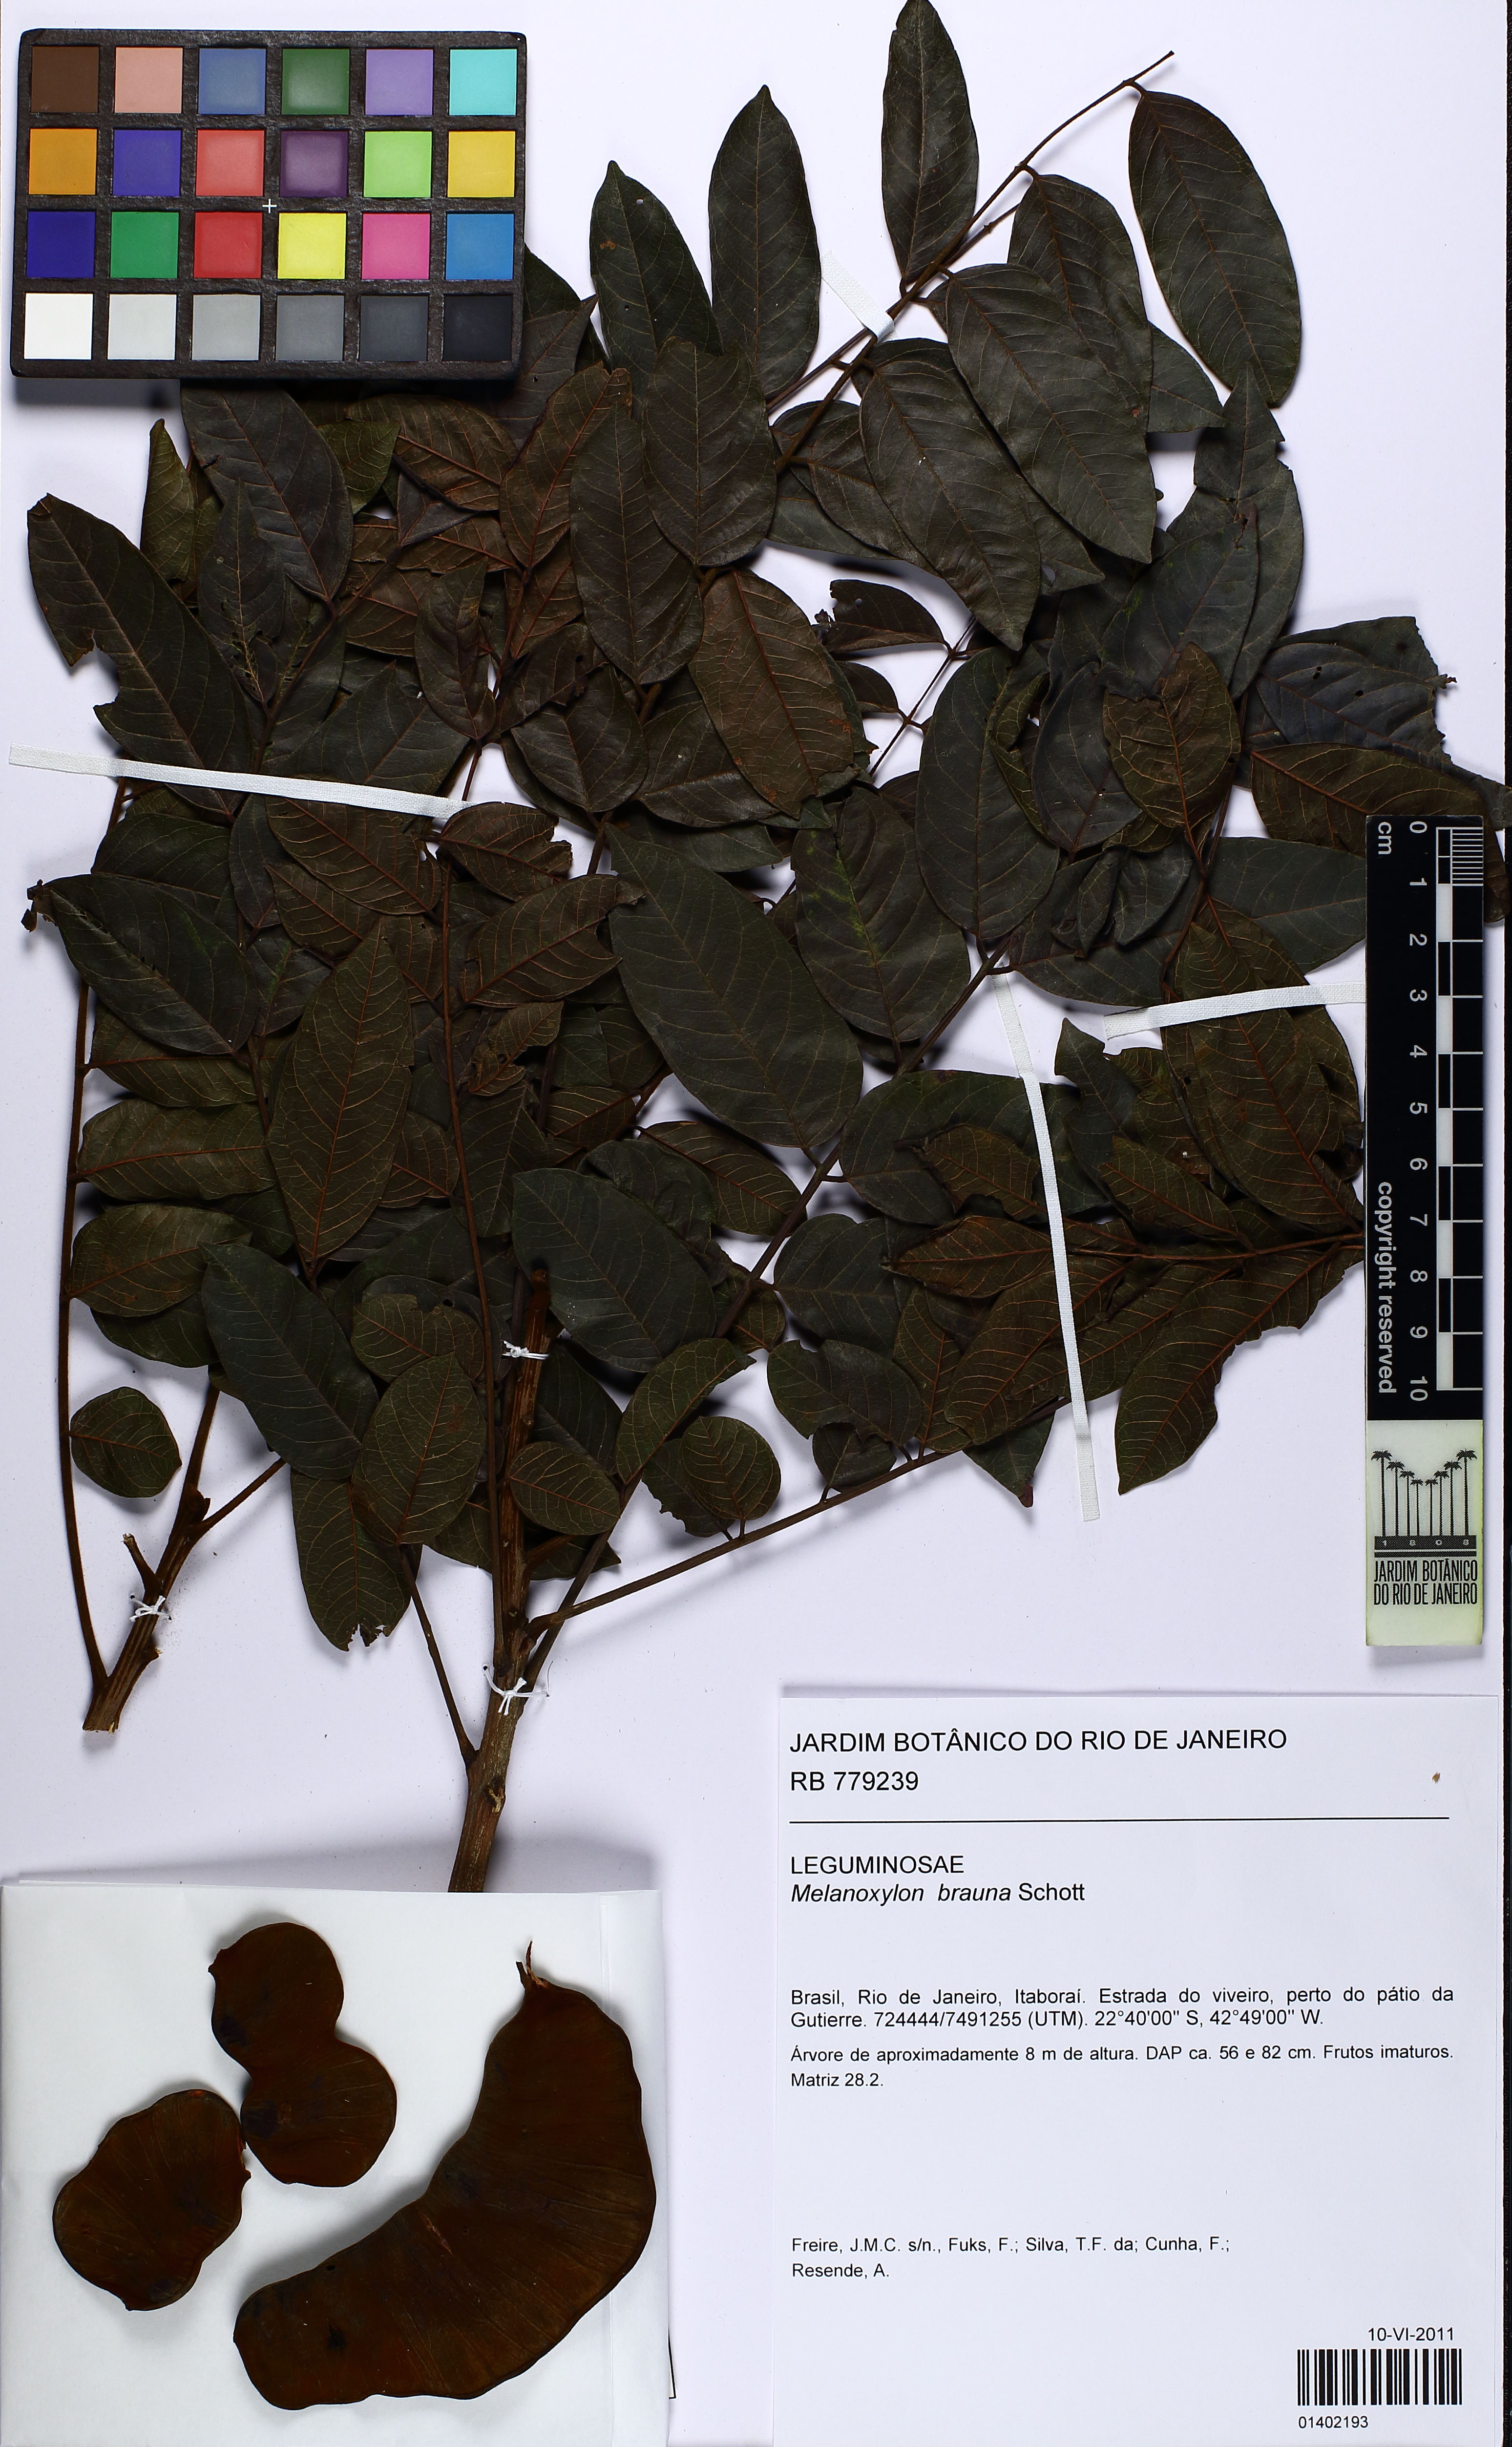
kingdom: Plantae
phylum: Tracheophyta
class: Magnoliopsida
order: Fabales
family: Fabaceae
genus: Melanoxylon
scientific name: Melanoxylon brauna
